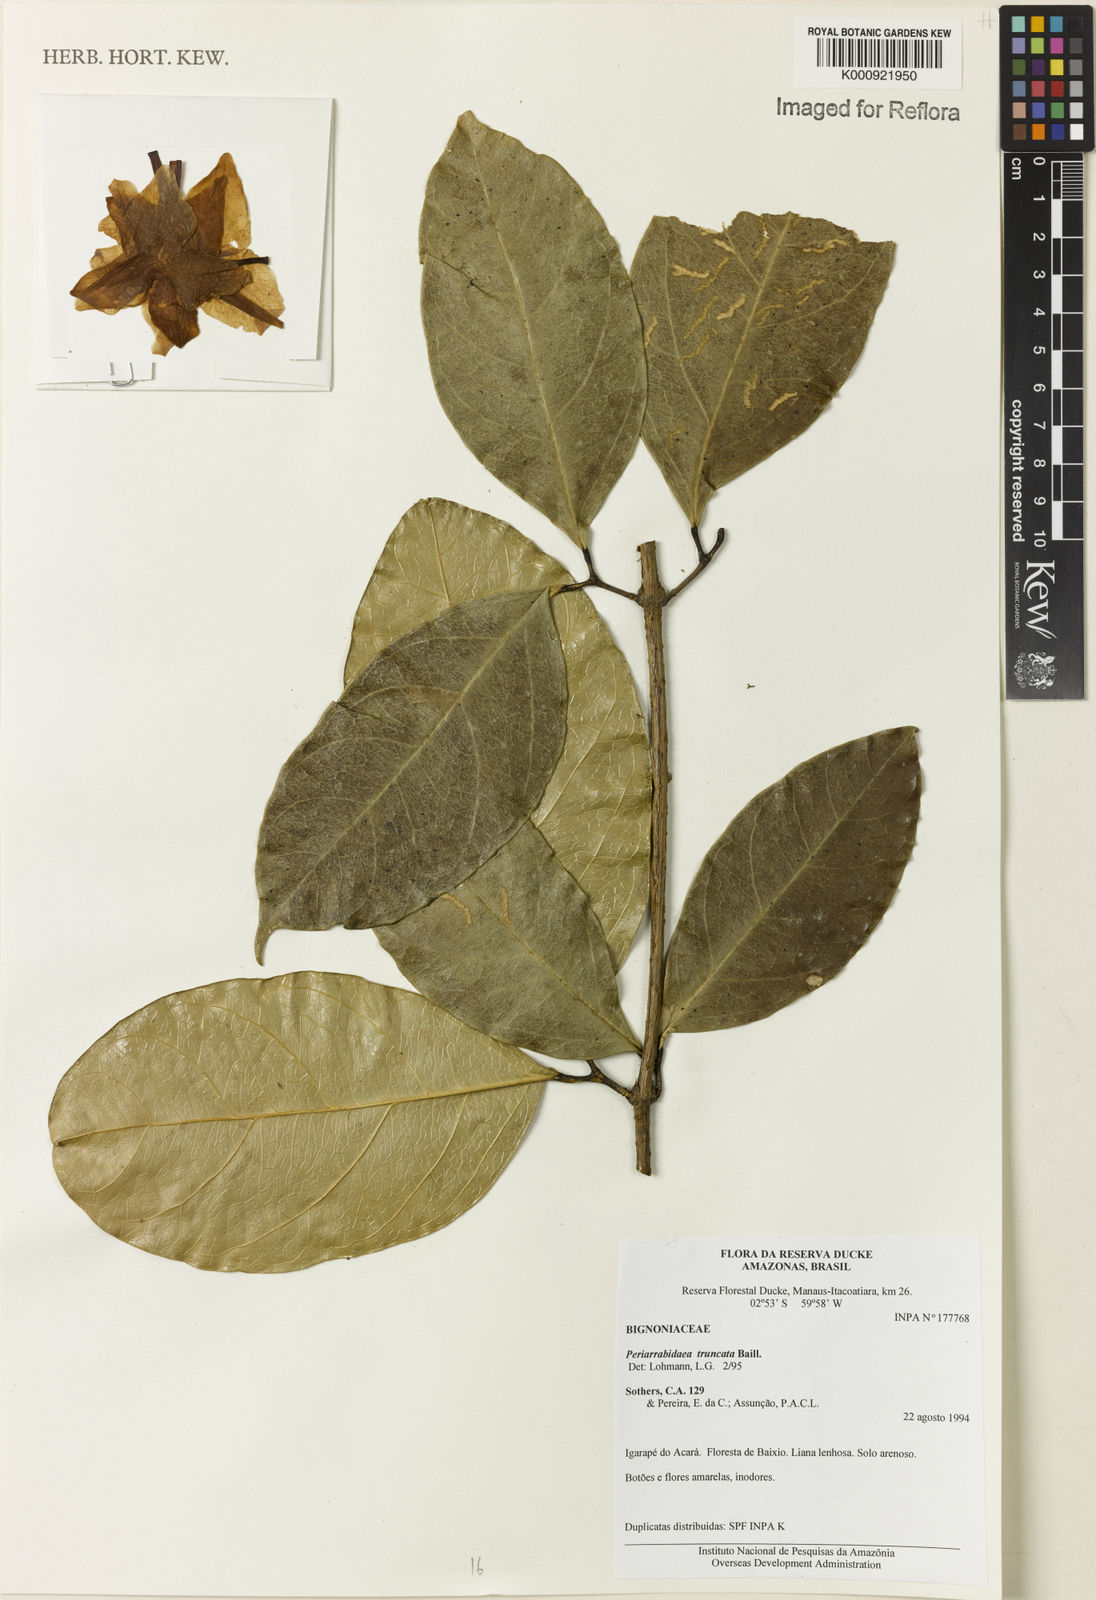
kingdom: Plantae
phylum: Tracheophyta
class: Magnoliopsida
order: Lamiales
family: Bignoniaceae
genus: Tanaecium
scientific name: Tanaecium truncatum
